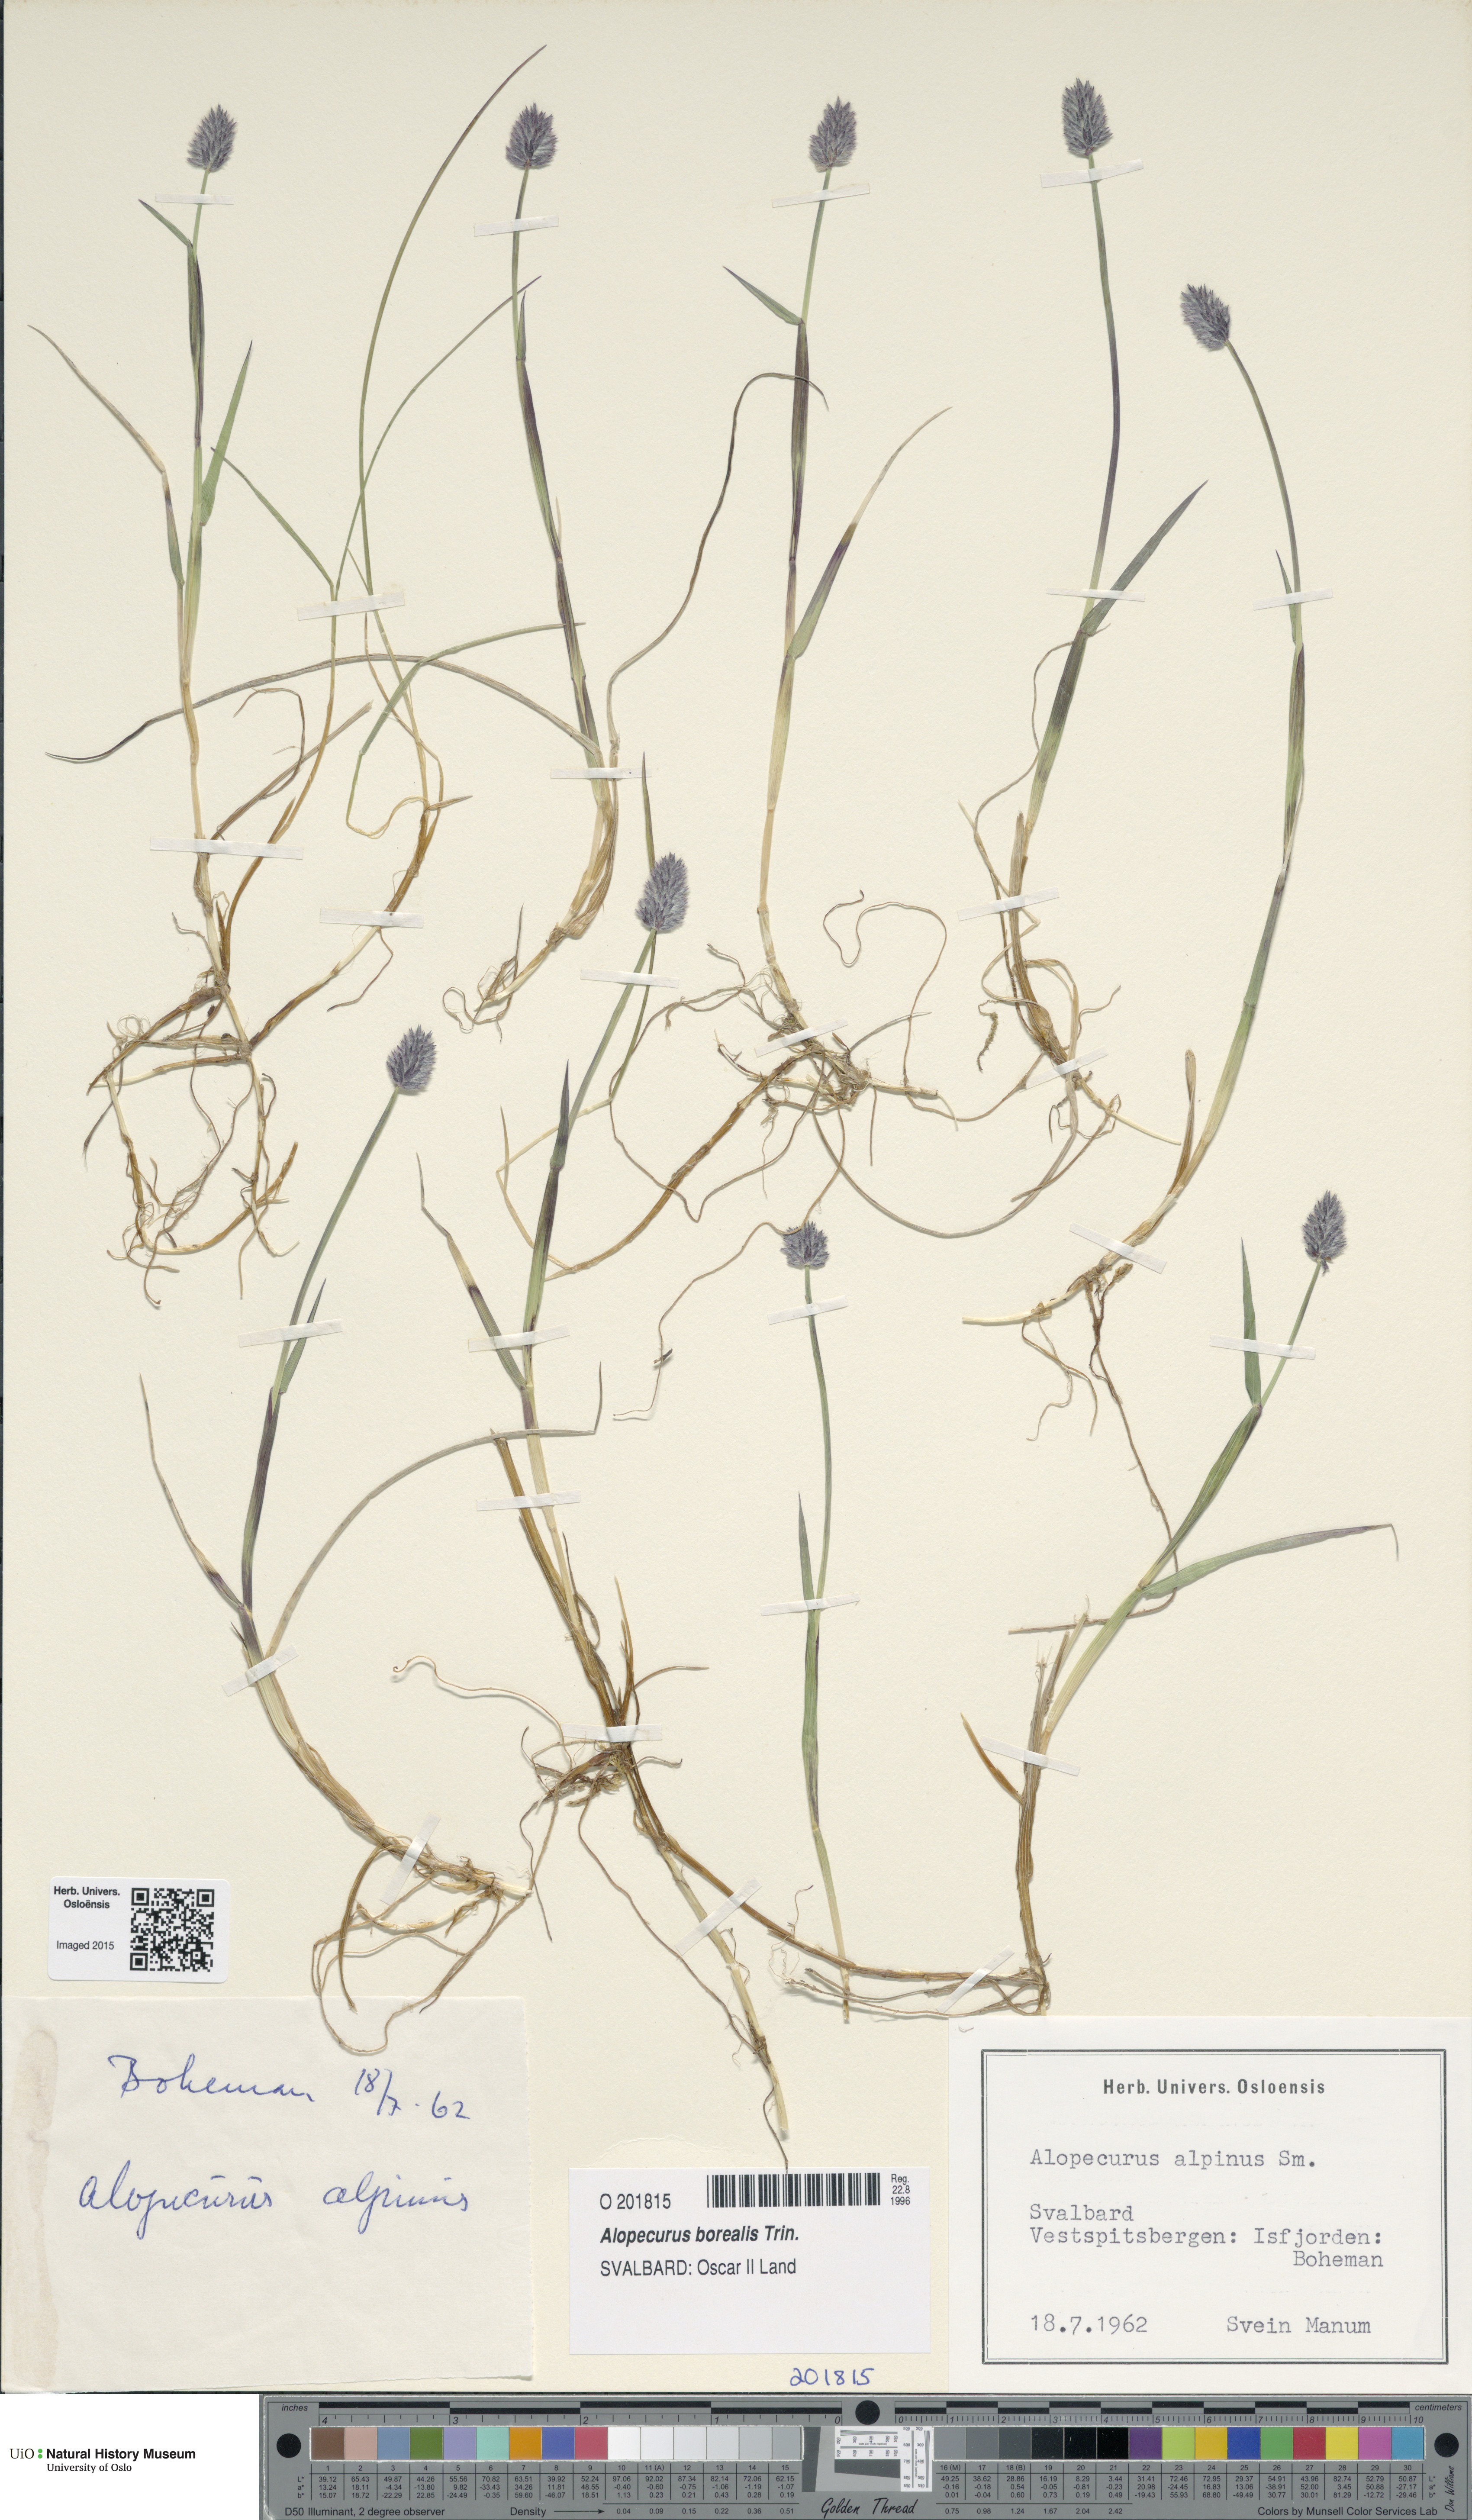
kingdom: Plantae
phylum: Tracheophyta
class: Liliopsida
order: Poales
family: Poaceae
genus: Alopecurus
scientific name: Alopecurus magellanicus
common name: Alpine foxtail
